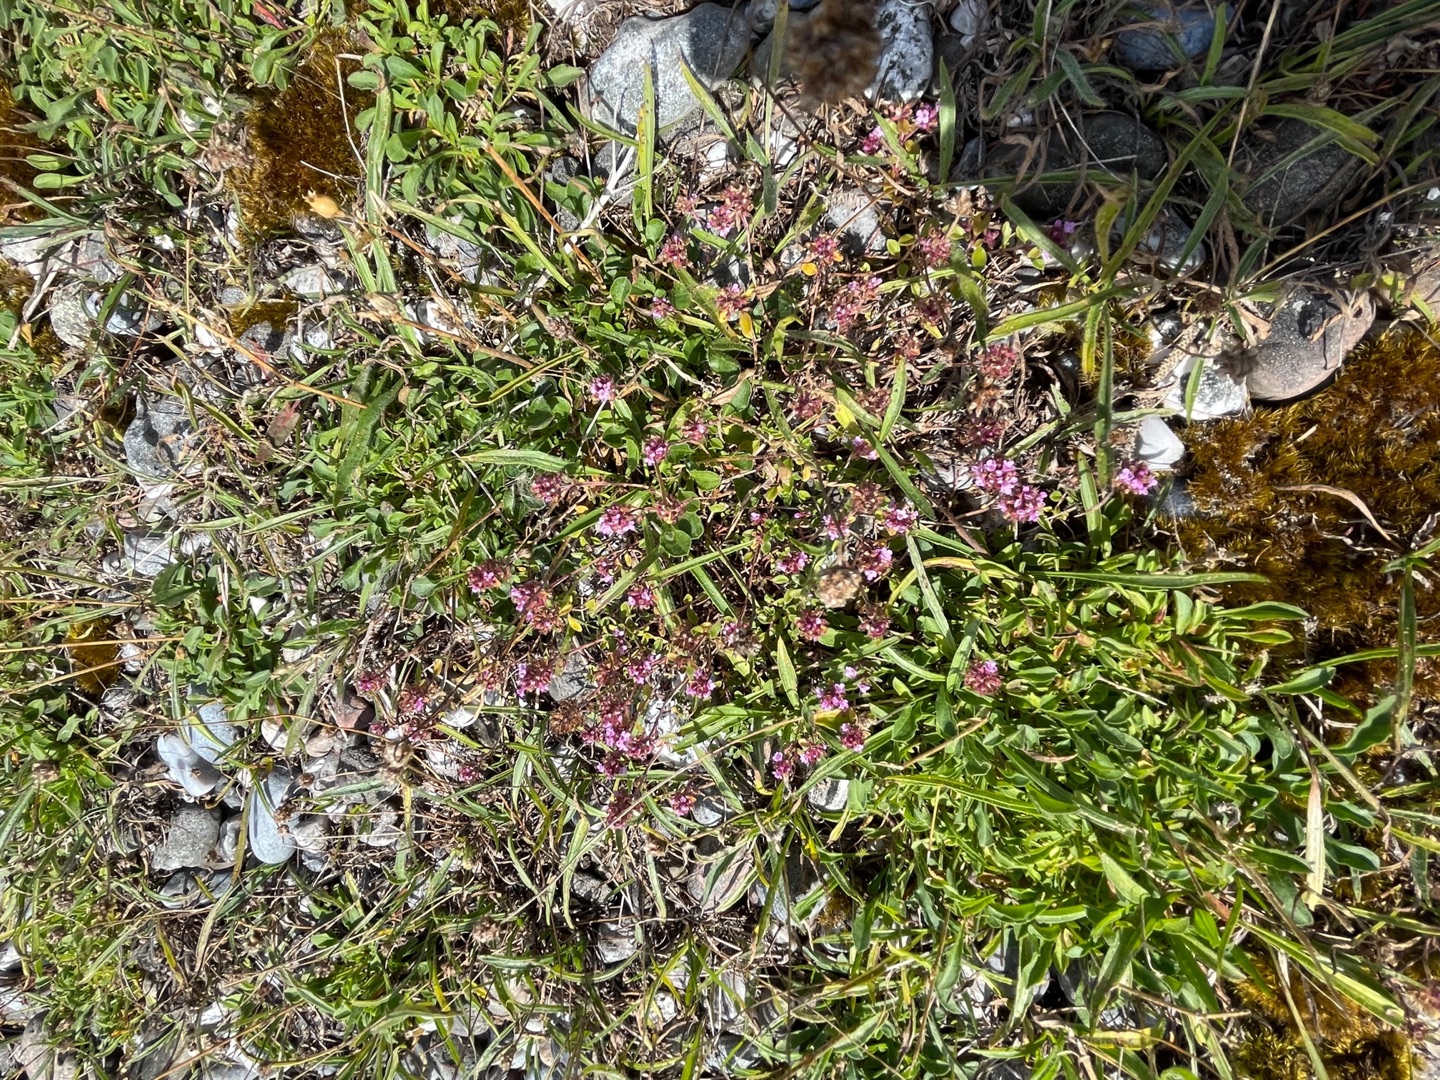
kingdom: Plantae
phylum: Tracheophyta
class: Magnoliopsida
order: Lamiales
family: Lamiaceae
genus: Thymus
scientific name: Thymus pulegioides
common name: Bredbladet timian
